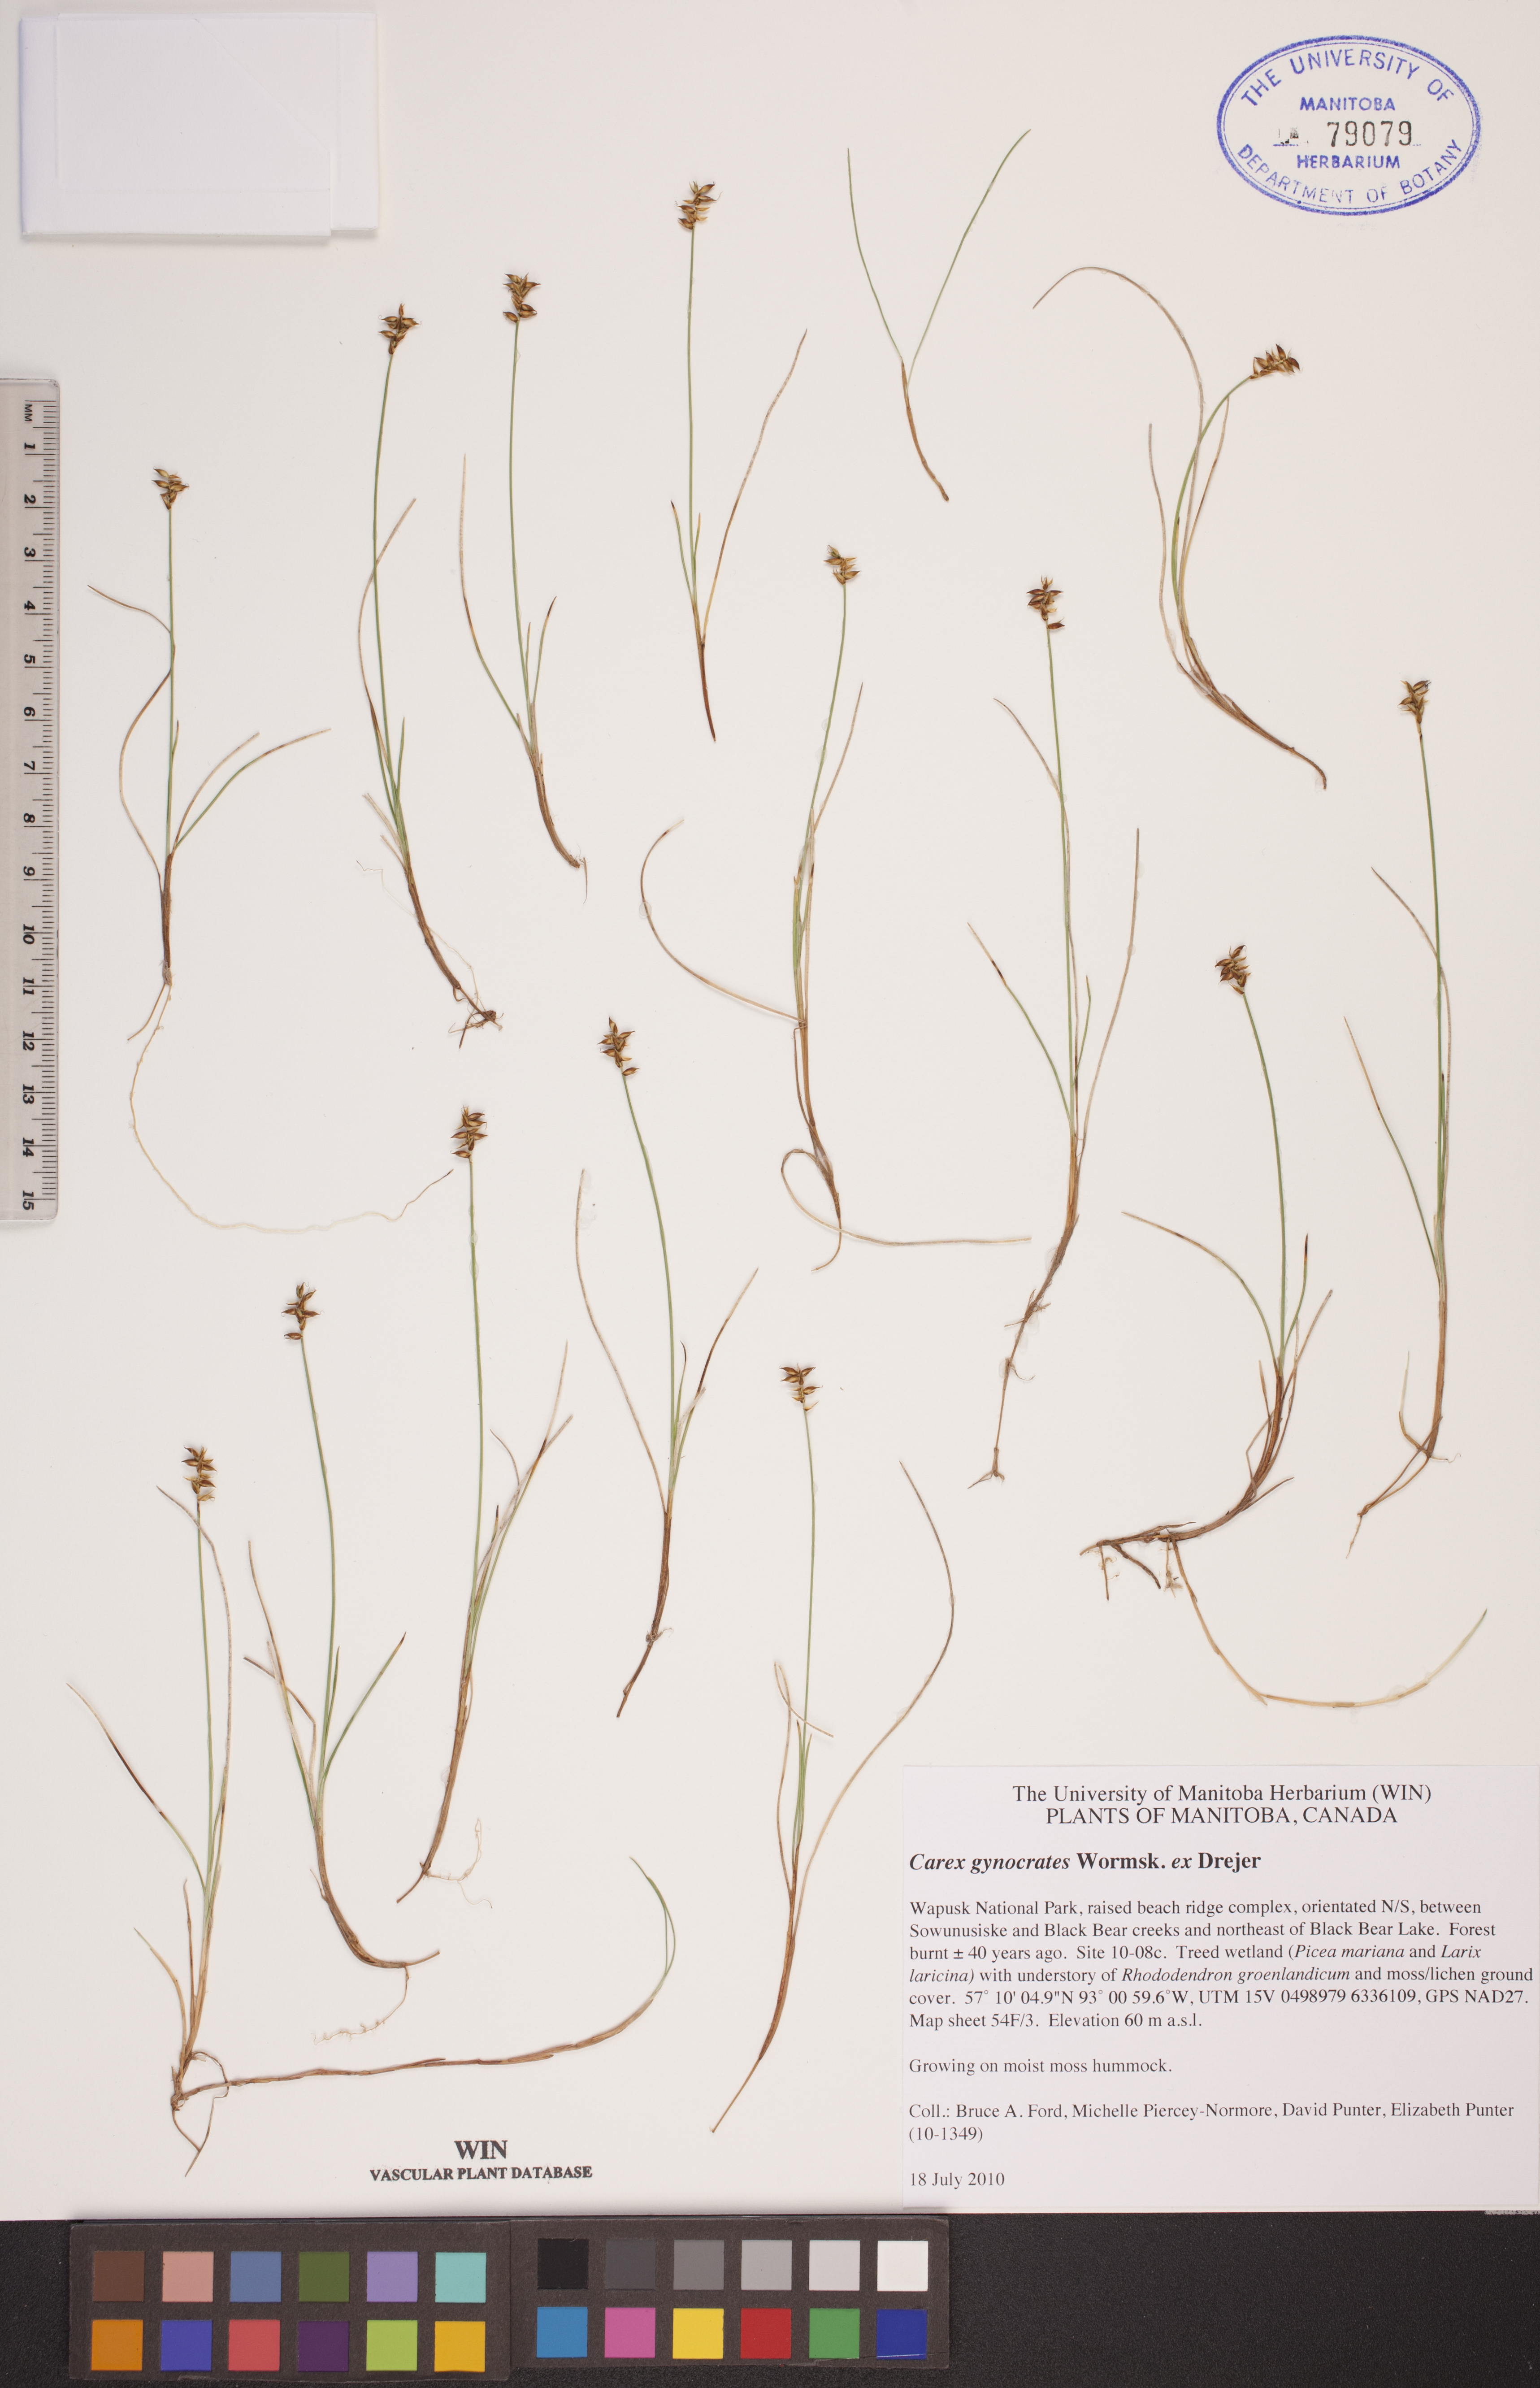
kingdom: Plantae
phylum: Tracheophyta
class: Liliopsida
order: Poales
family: Cyperaceae
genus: Carex
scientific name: Carex nardina
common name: Nard sedge
